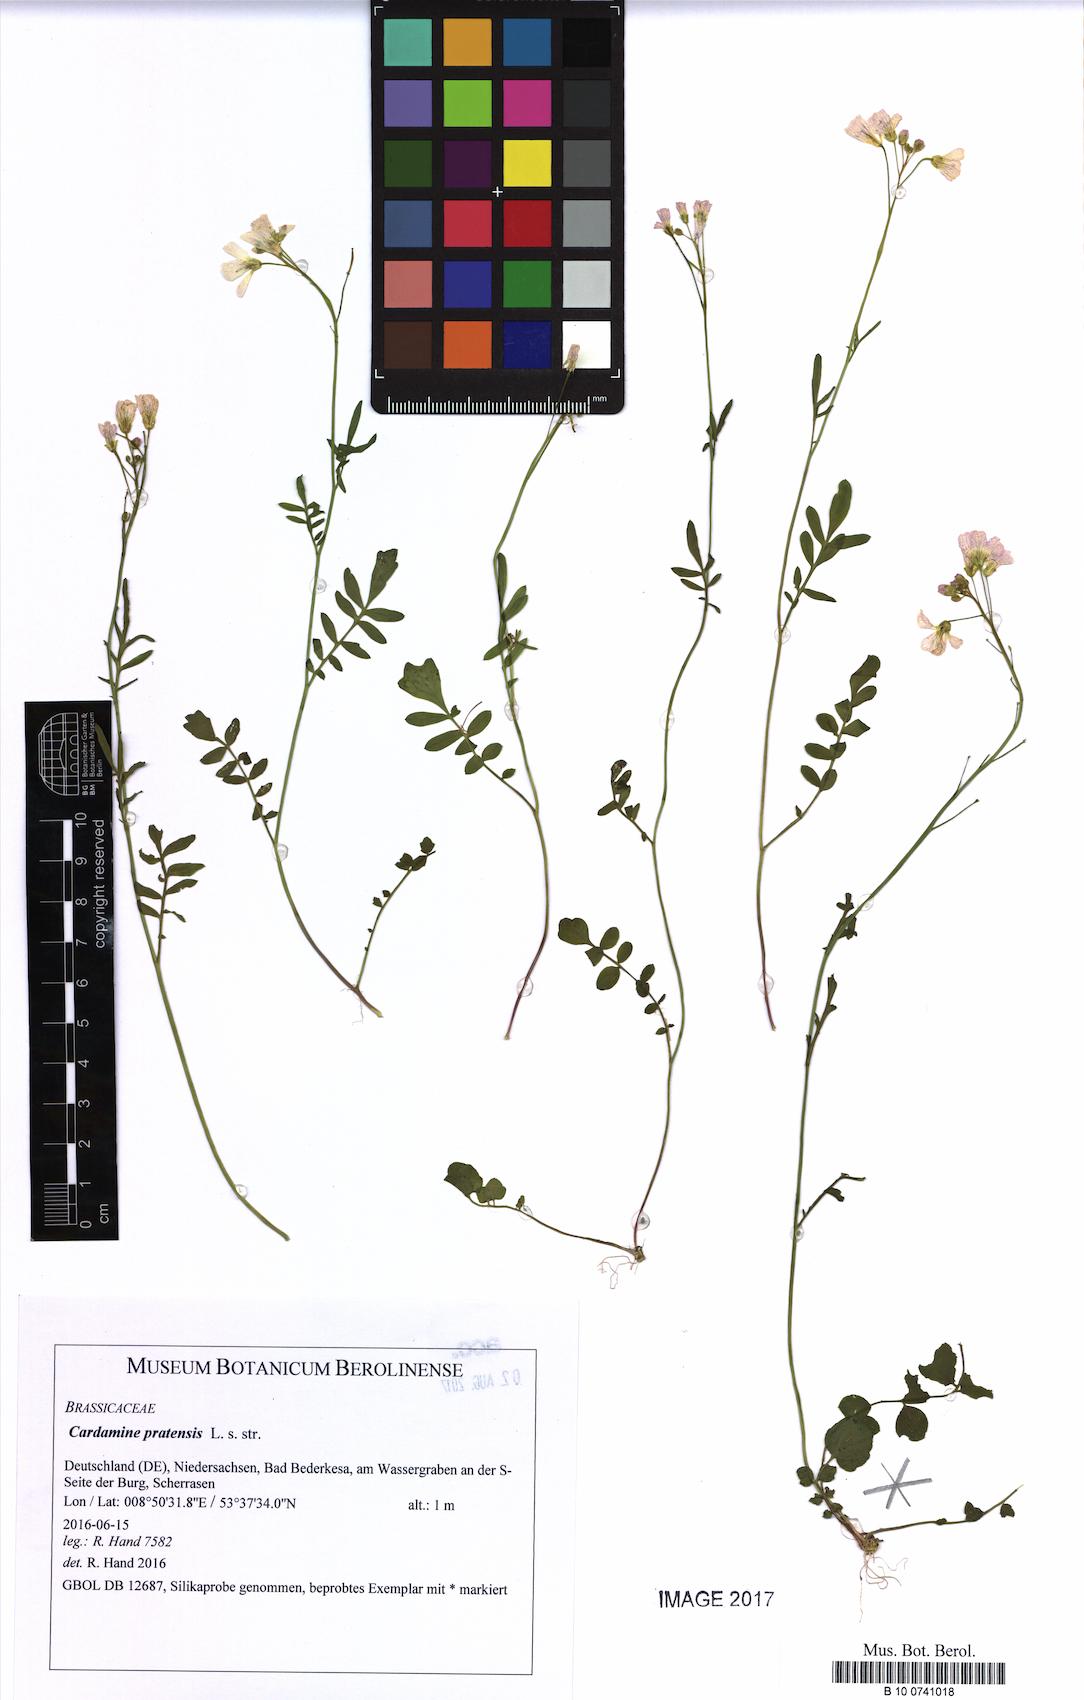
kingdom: Plantae
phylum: Tracheophyta
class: Magnoliopsida
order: Brassicales
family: Brassicaceae
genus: Cardamine
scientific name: Cardamine pratensis
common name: Cuckoo flower
